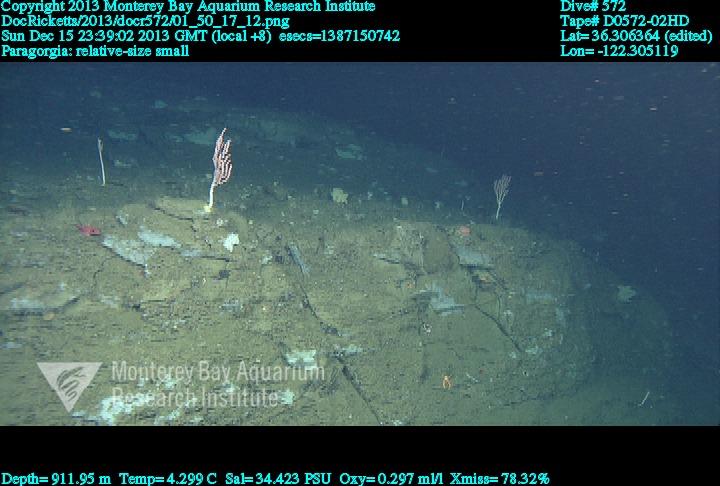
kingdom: Animalia
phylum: Cnidaria
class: Anthozoa
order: Scleralcyonacea
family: Coralliidae
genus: Sibogagorgia
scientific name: Sibogagorgia cauliflora
